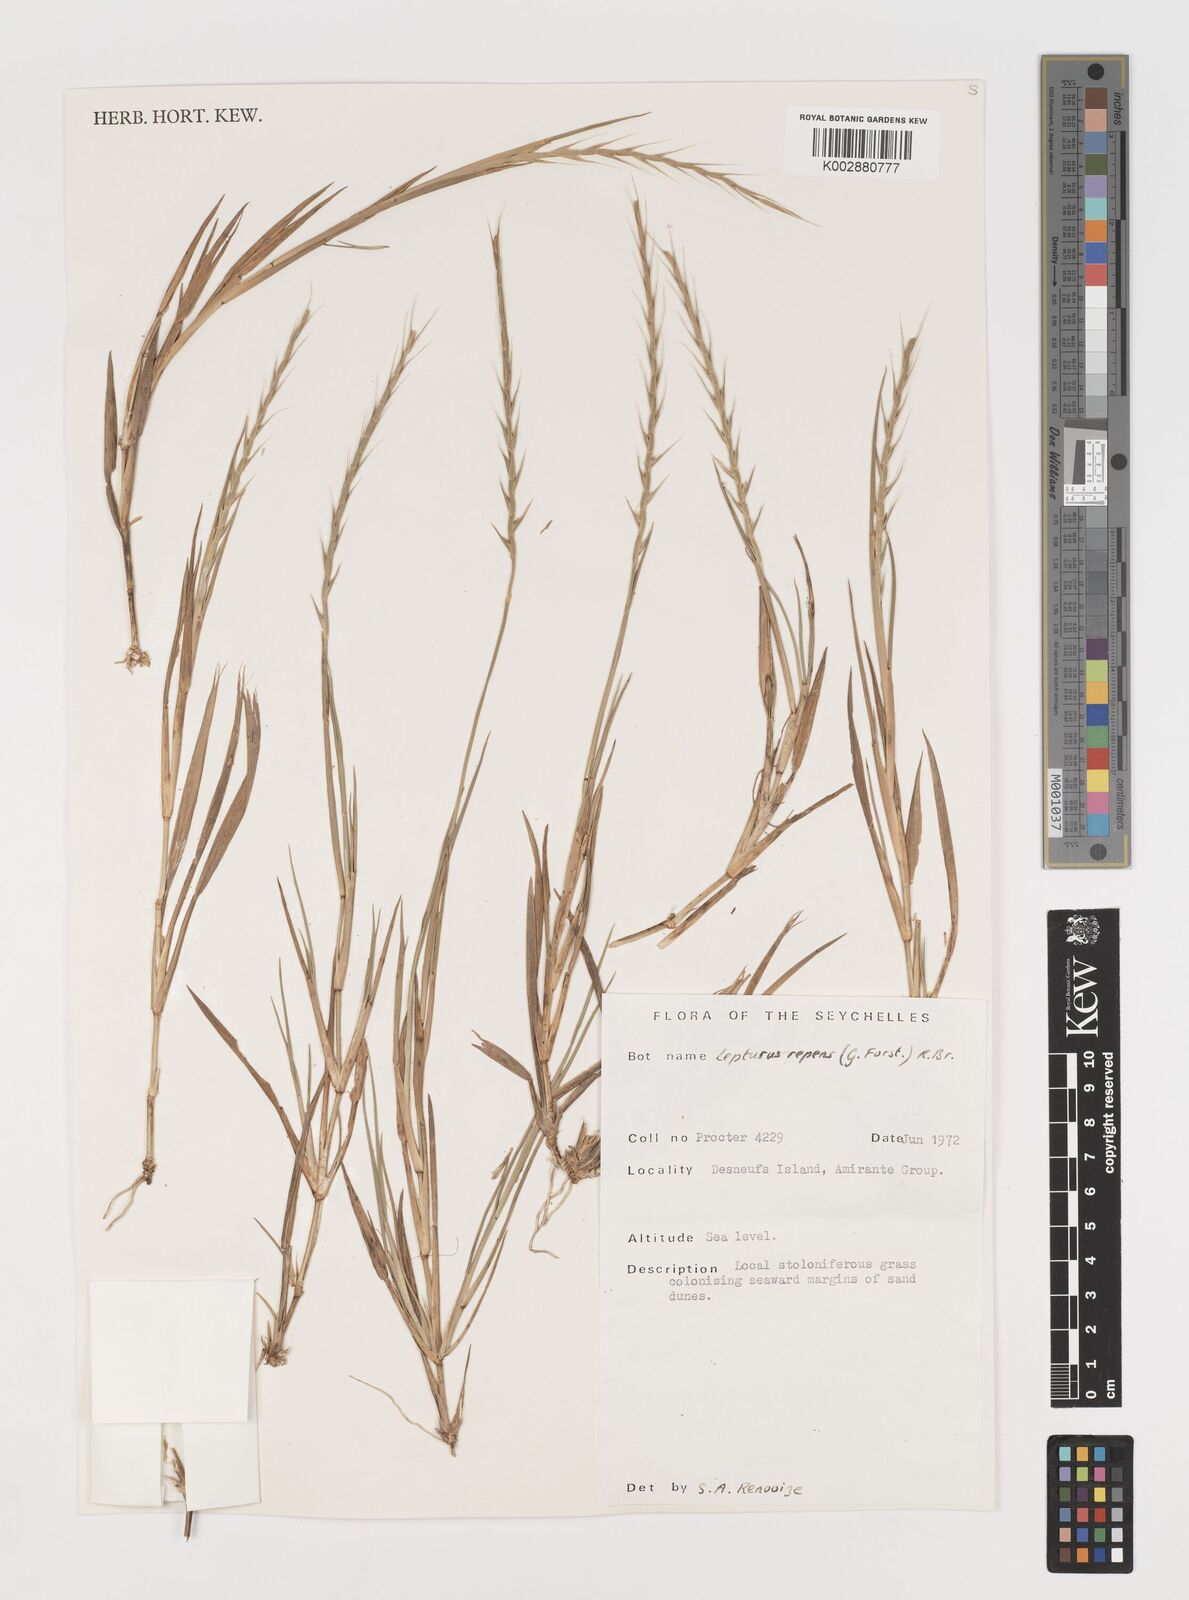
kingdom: Plantae
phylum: Tracheophyta
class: Liliopsida
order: Poales
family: Poaceae
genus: Lepturus
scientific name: Lepturus repens
